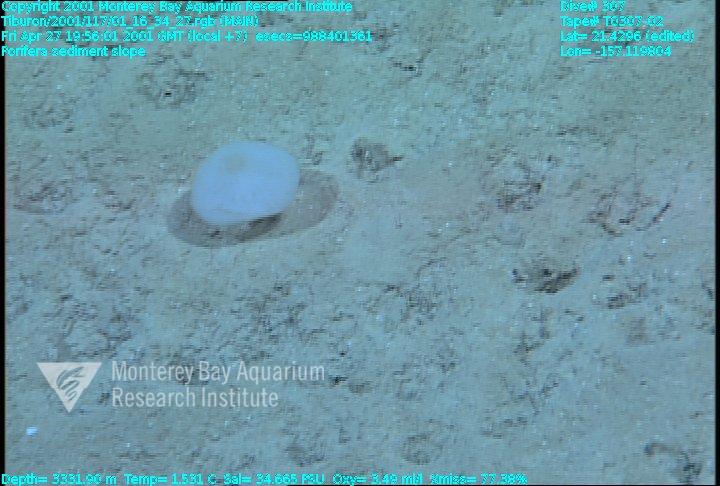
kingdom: Animalia
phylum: Porifera
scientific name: Porifera
